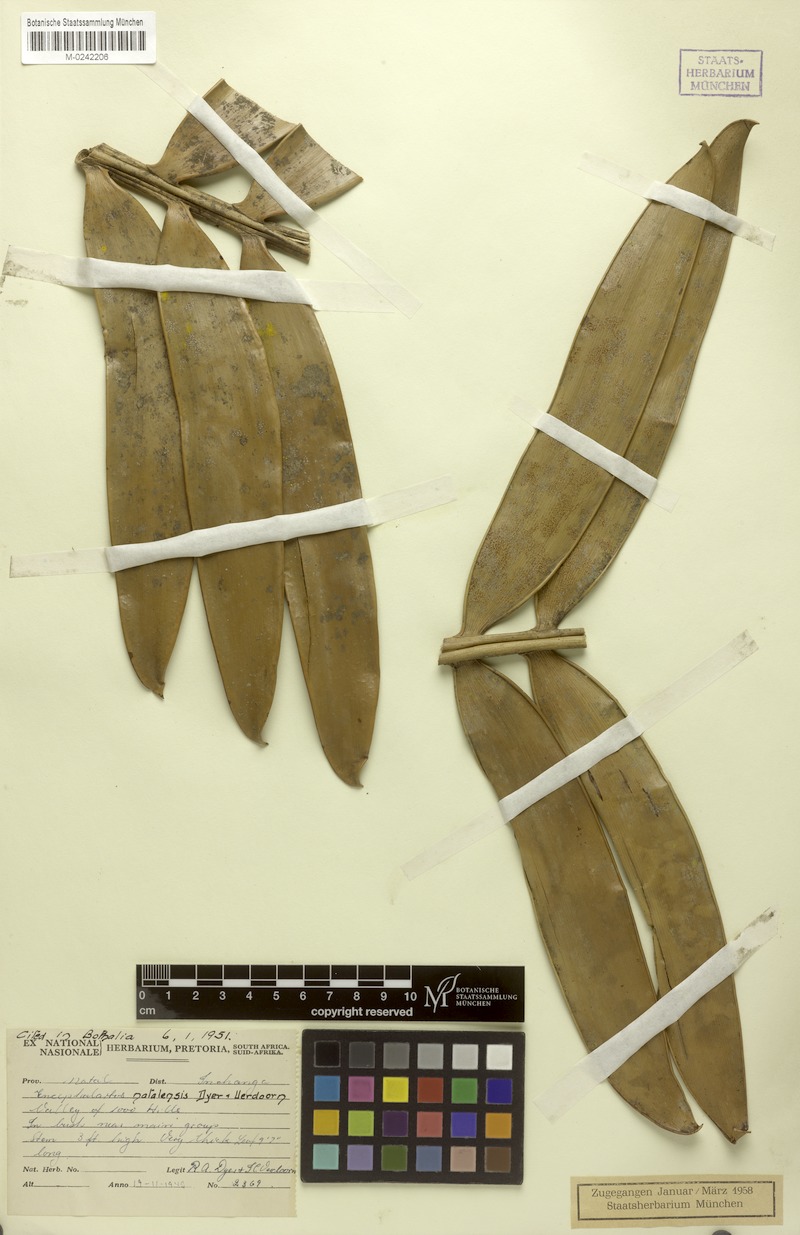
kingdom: Plantae
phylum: Tracheophyta
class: Cycadopsida
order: Cycadales
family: Zamiaceae
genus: Encephalartos
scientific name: Encephalartos natalensis
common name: Natal cycad
